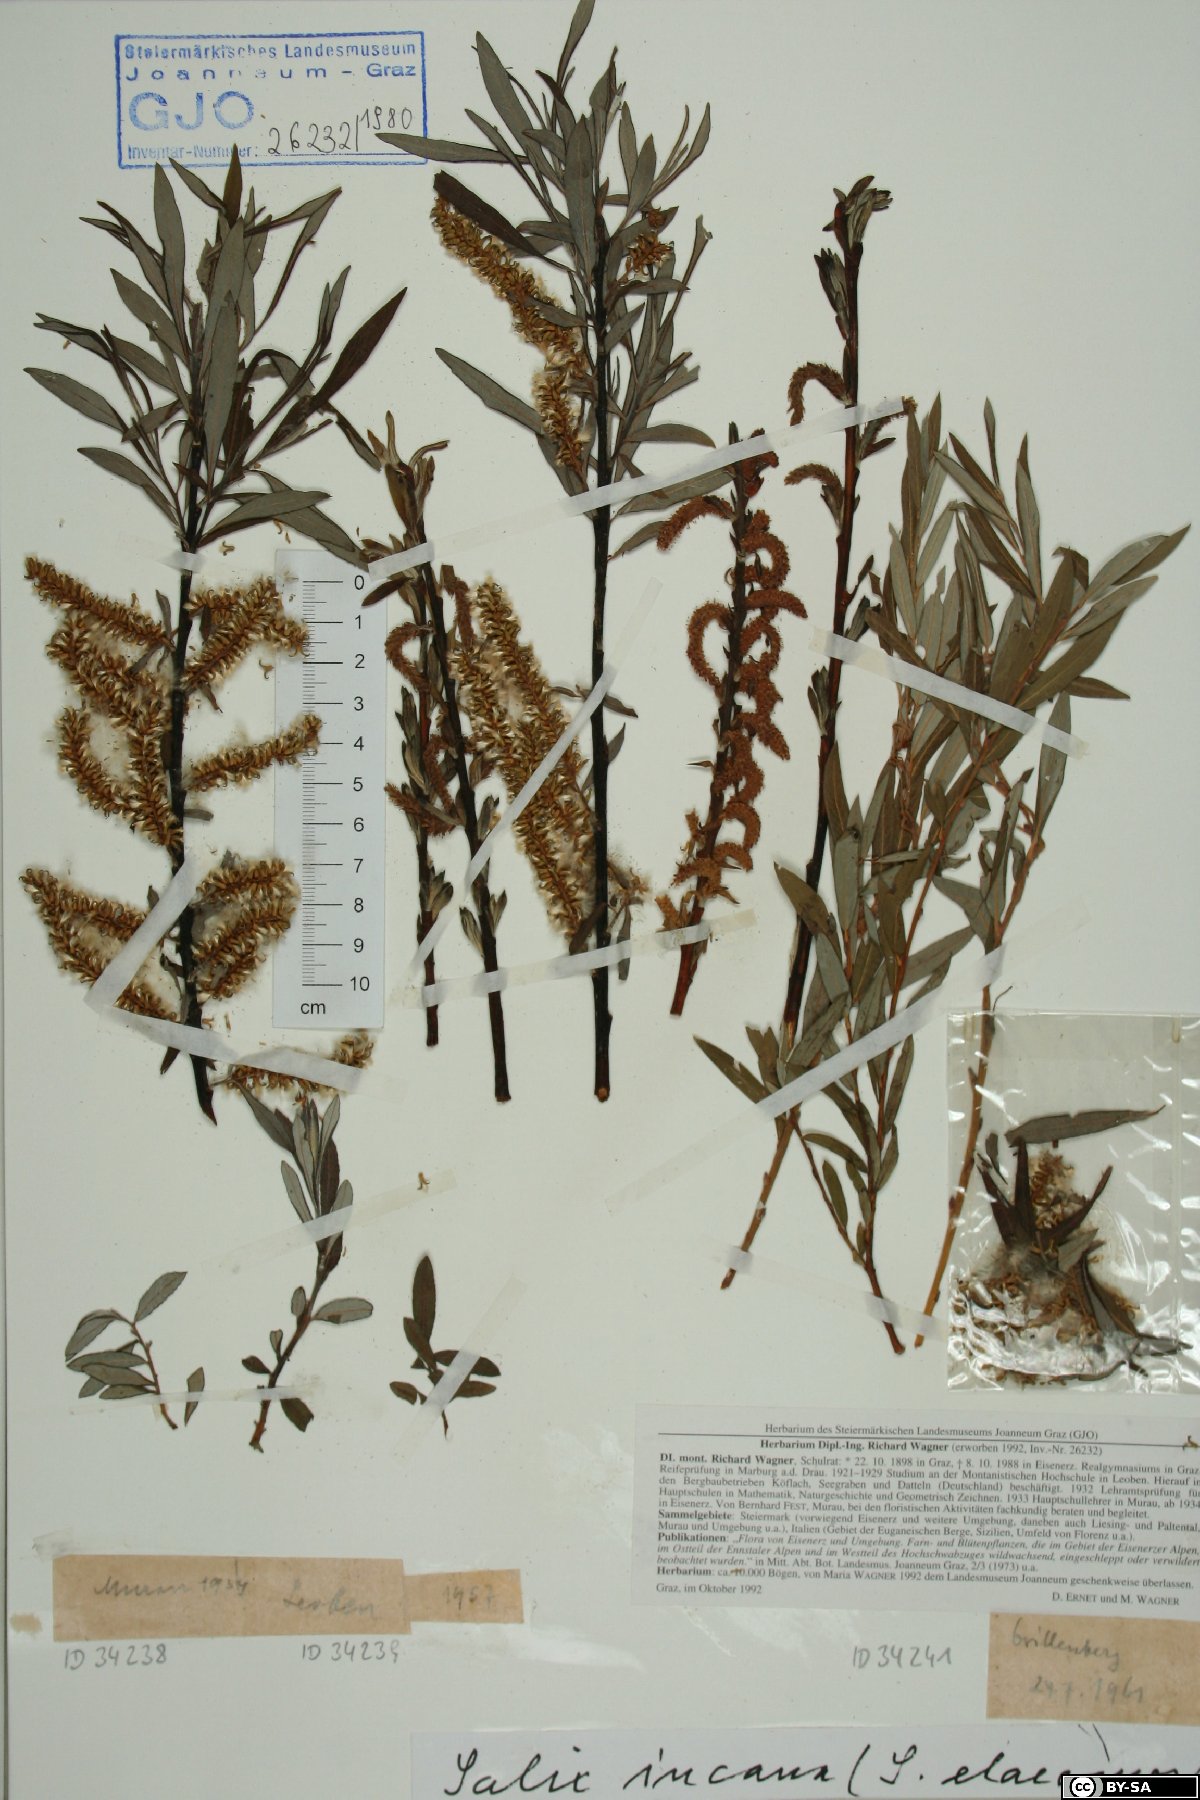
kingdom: Plantae
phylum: Tracheophyta
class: Magnoliopsida
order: Malpighiales
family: Salicaceae
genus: Salix
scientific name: Salix eleagnos
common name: Elaeagnus willow
